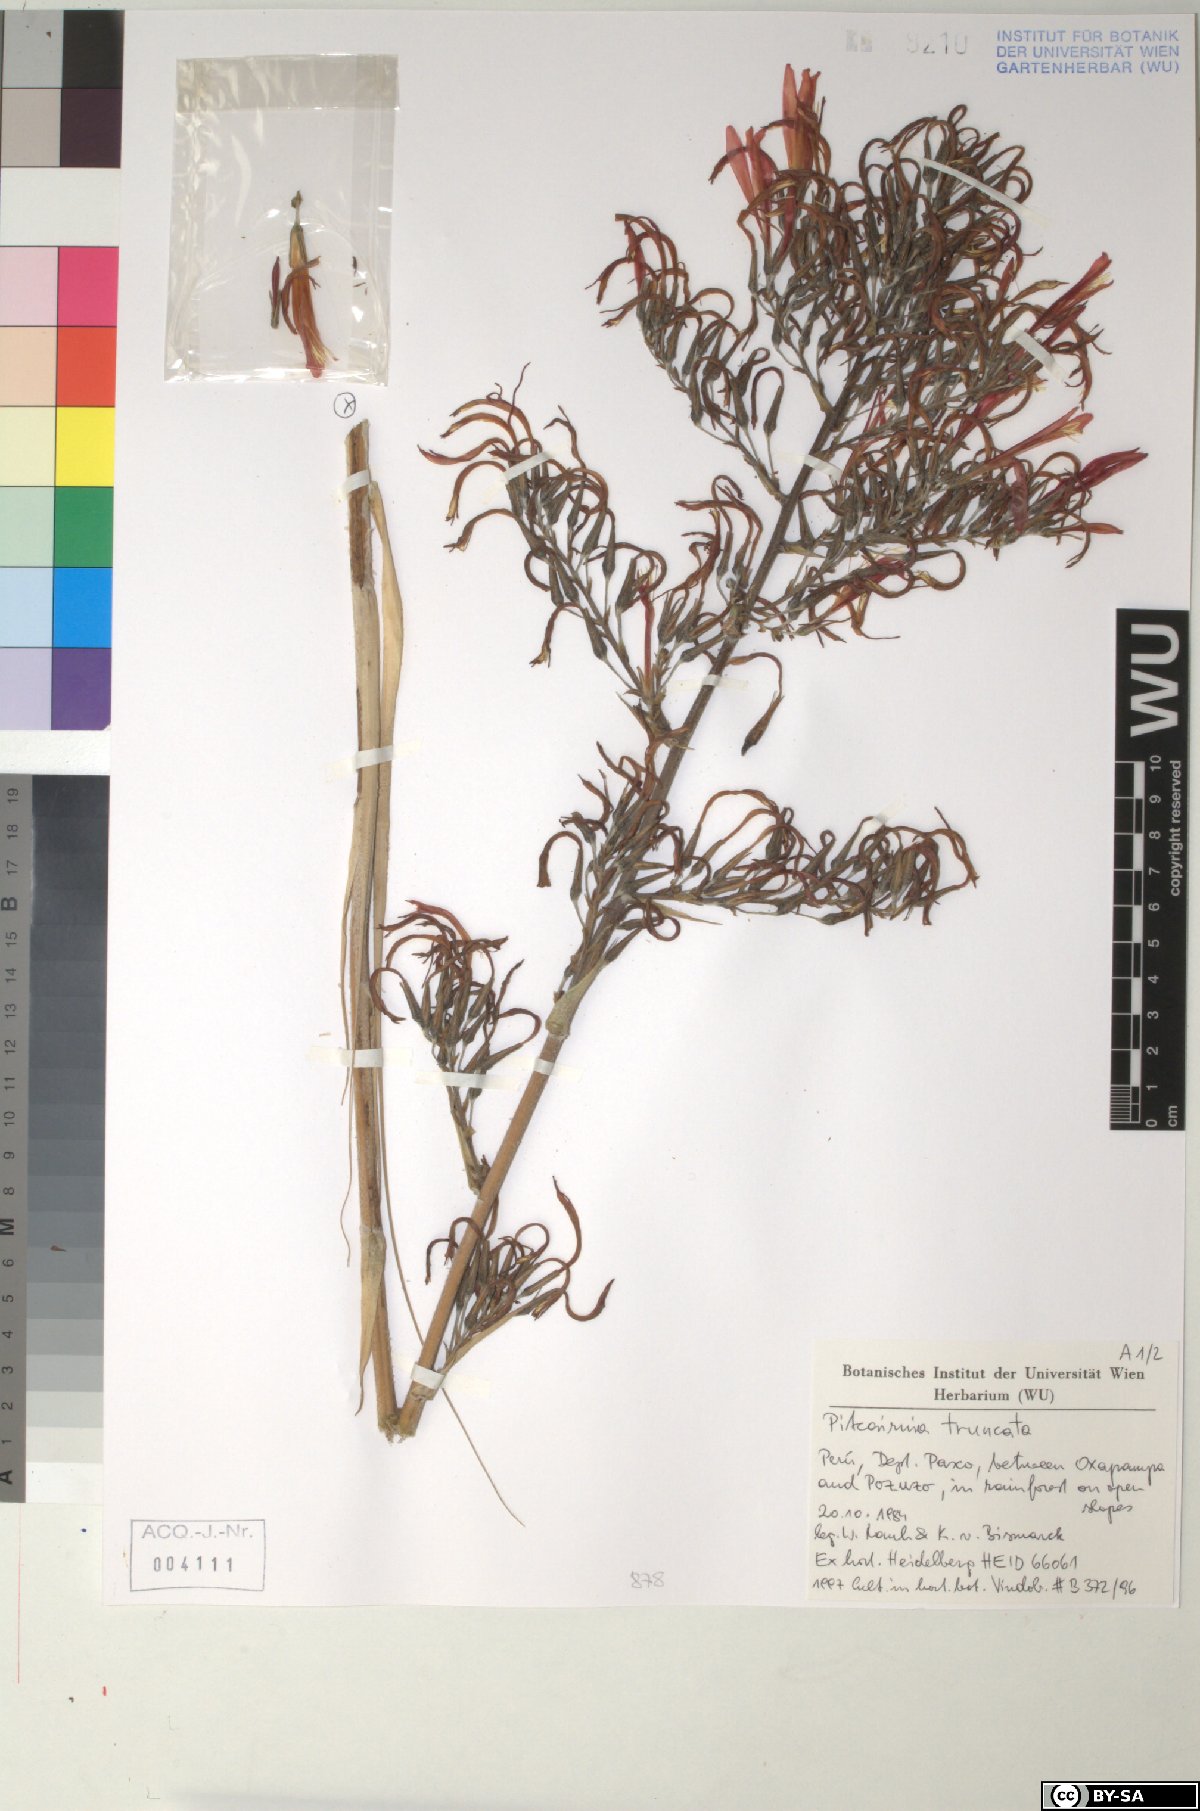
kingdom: Plantae
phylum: Tracheophyta
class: Liliopsida
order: Poales
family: Bromeliaceae
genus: Pitcairnia
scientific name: Pitcairnia truncata
